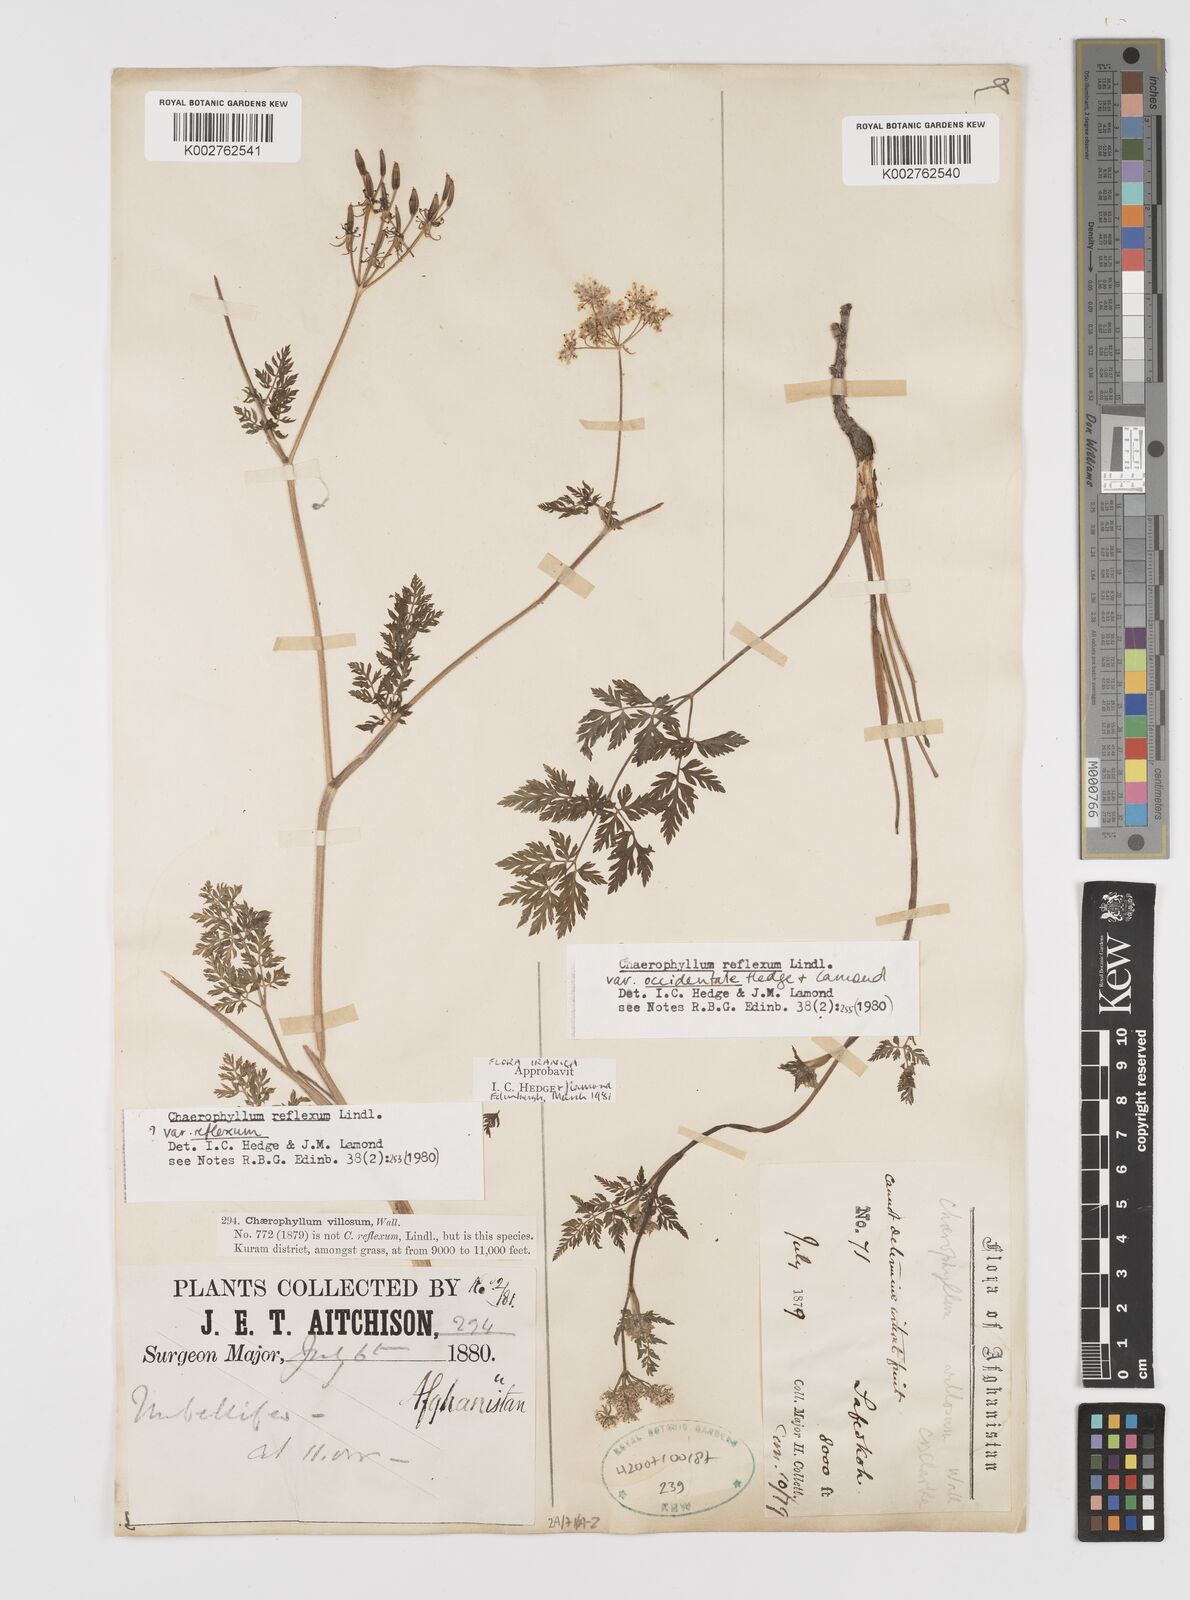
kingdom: Plantae
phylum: Tracheophyta
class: Magnoliopsida
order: Apiales
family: Apiaceae
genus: Chaerophyllum
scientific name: Chaerophyllum reflexum
